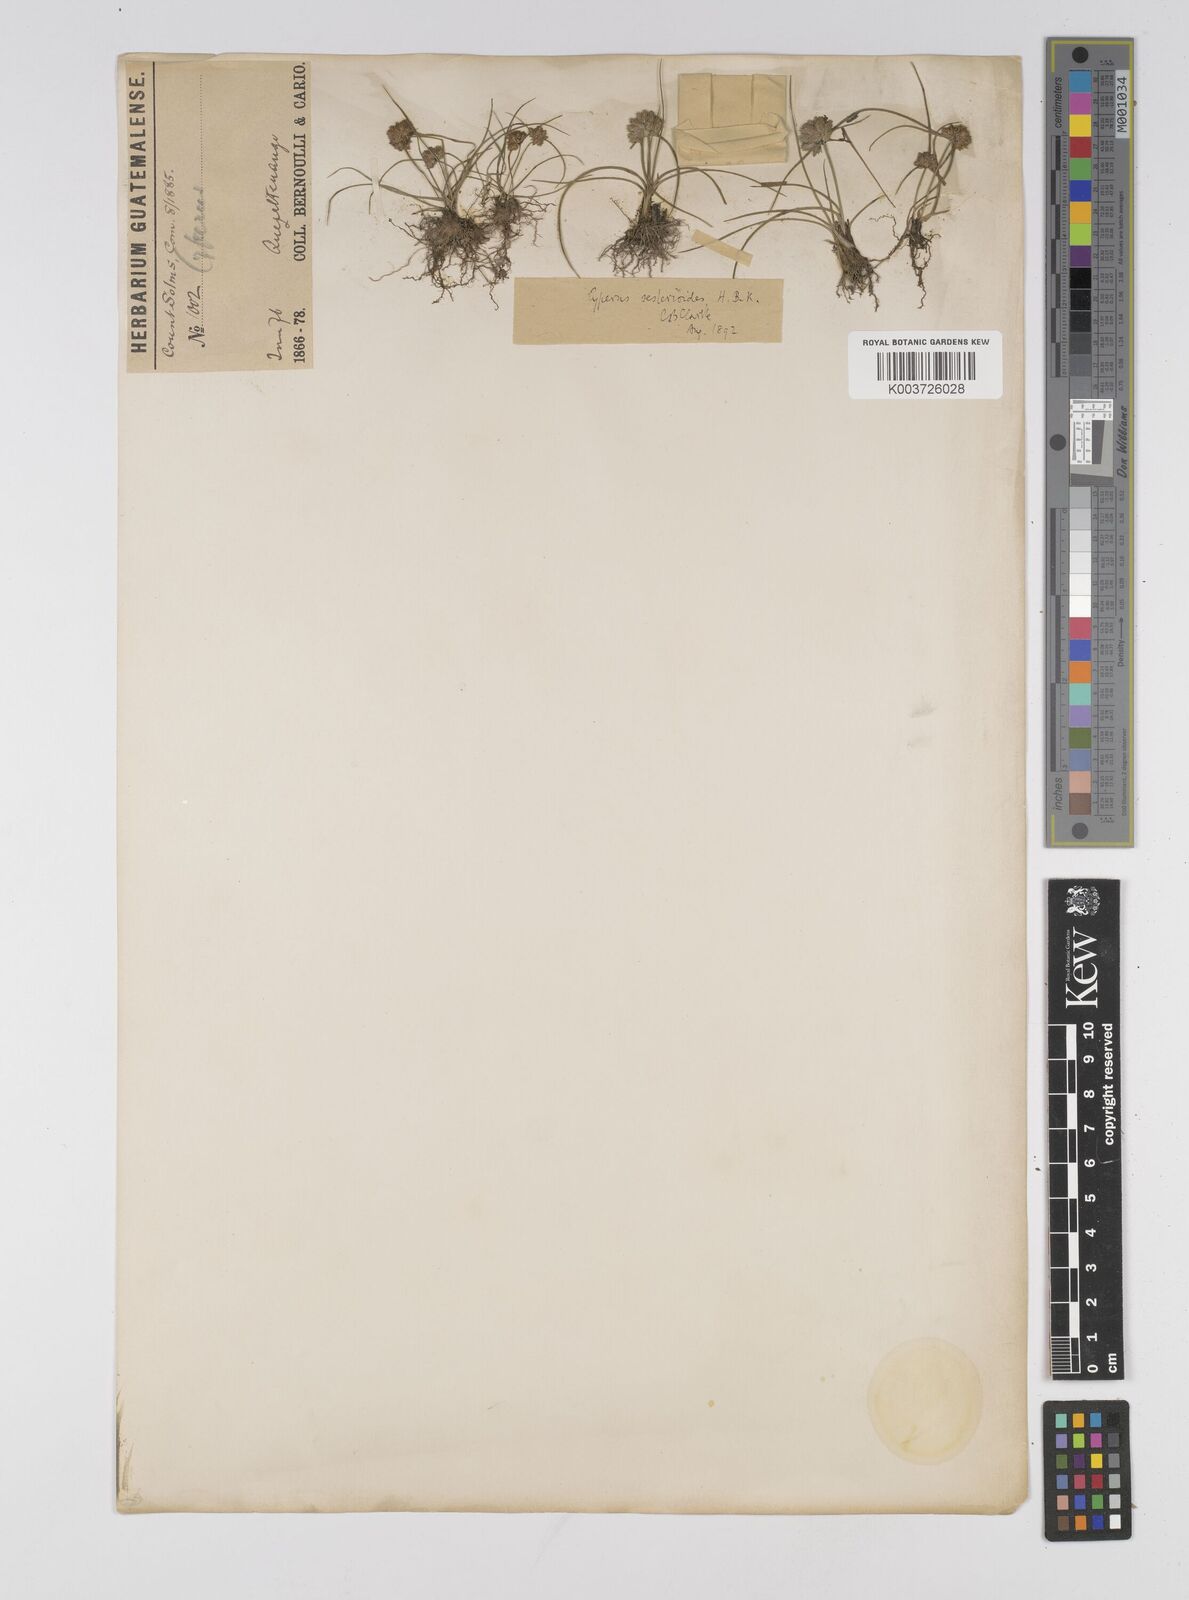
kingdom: Plantae
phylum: Tracheophyta
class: Liliopsida
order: Poales
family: Cyperaceae
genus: Cyperus
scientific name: Cyperus seslerioides
